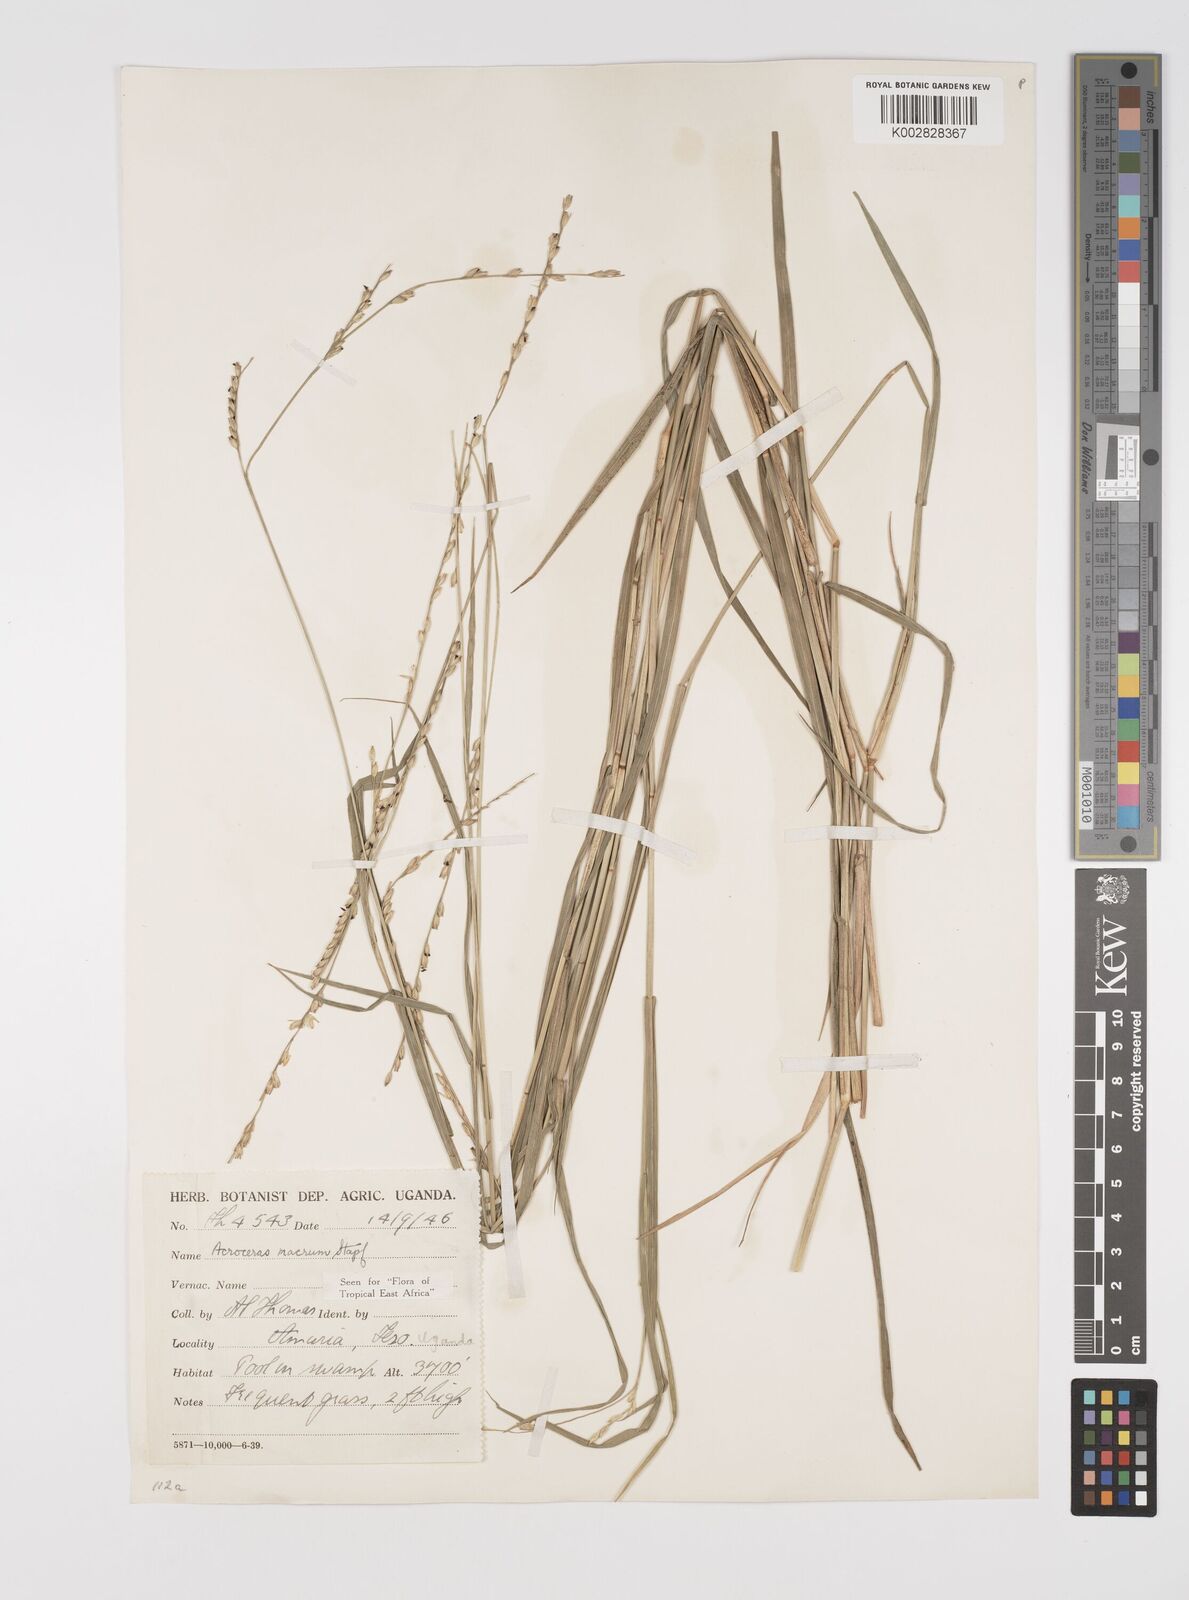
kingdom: Plantae
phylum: Tracheophyta
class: Liliopsida
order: Poales
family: Poaceae
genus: Acroceras
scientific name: Acroceras macrum
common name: Nyl grass
